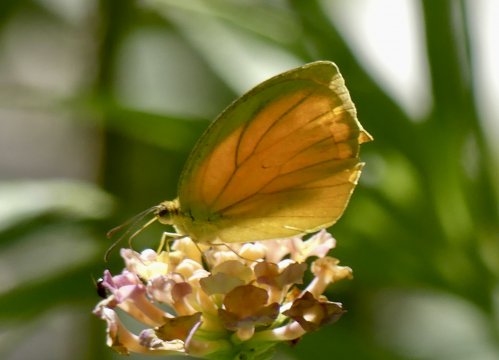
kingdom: Animalia
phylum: Arthropoda
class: Insecta
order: Lepidoptera
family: Pieridae
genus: Pyrisitia
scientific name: Pyrisitia proterpia
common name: Tailed Orange
